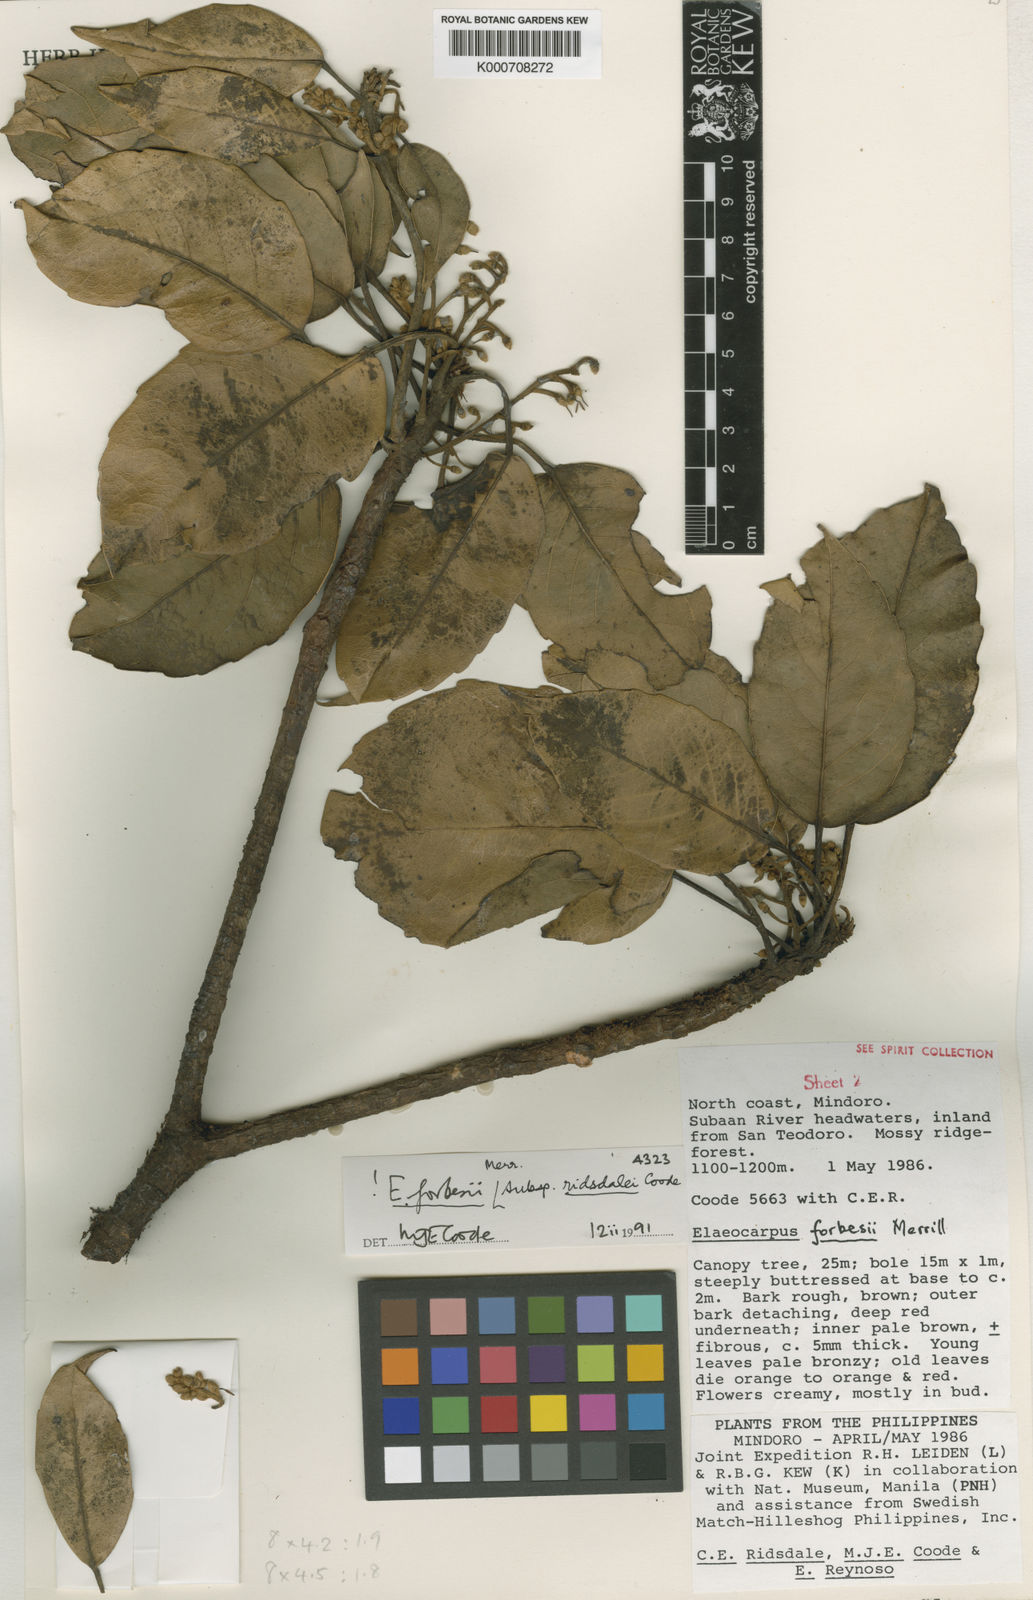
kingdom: Plantae
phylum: Tracheophyta
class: Magnoliopsida
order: Oxalidales
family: Elaeocarpaceae
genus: Elaeocarpus
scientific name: Elaeocarpus forbesii
